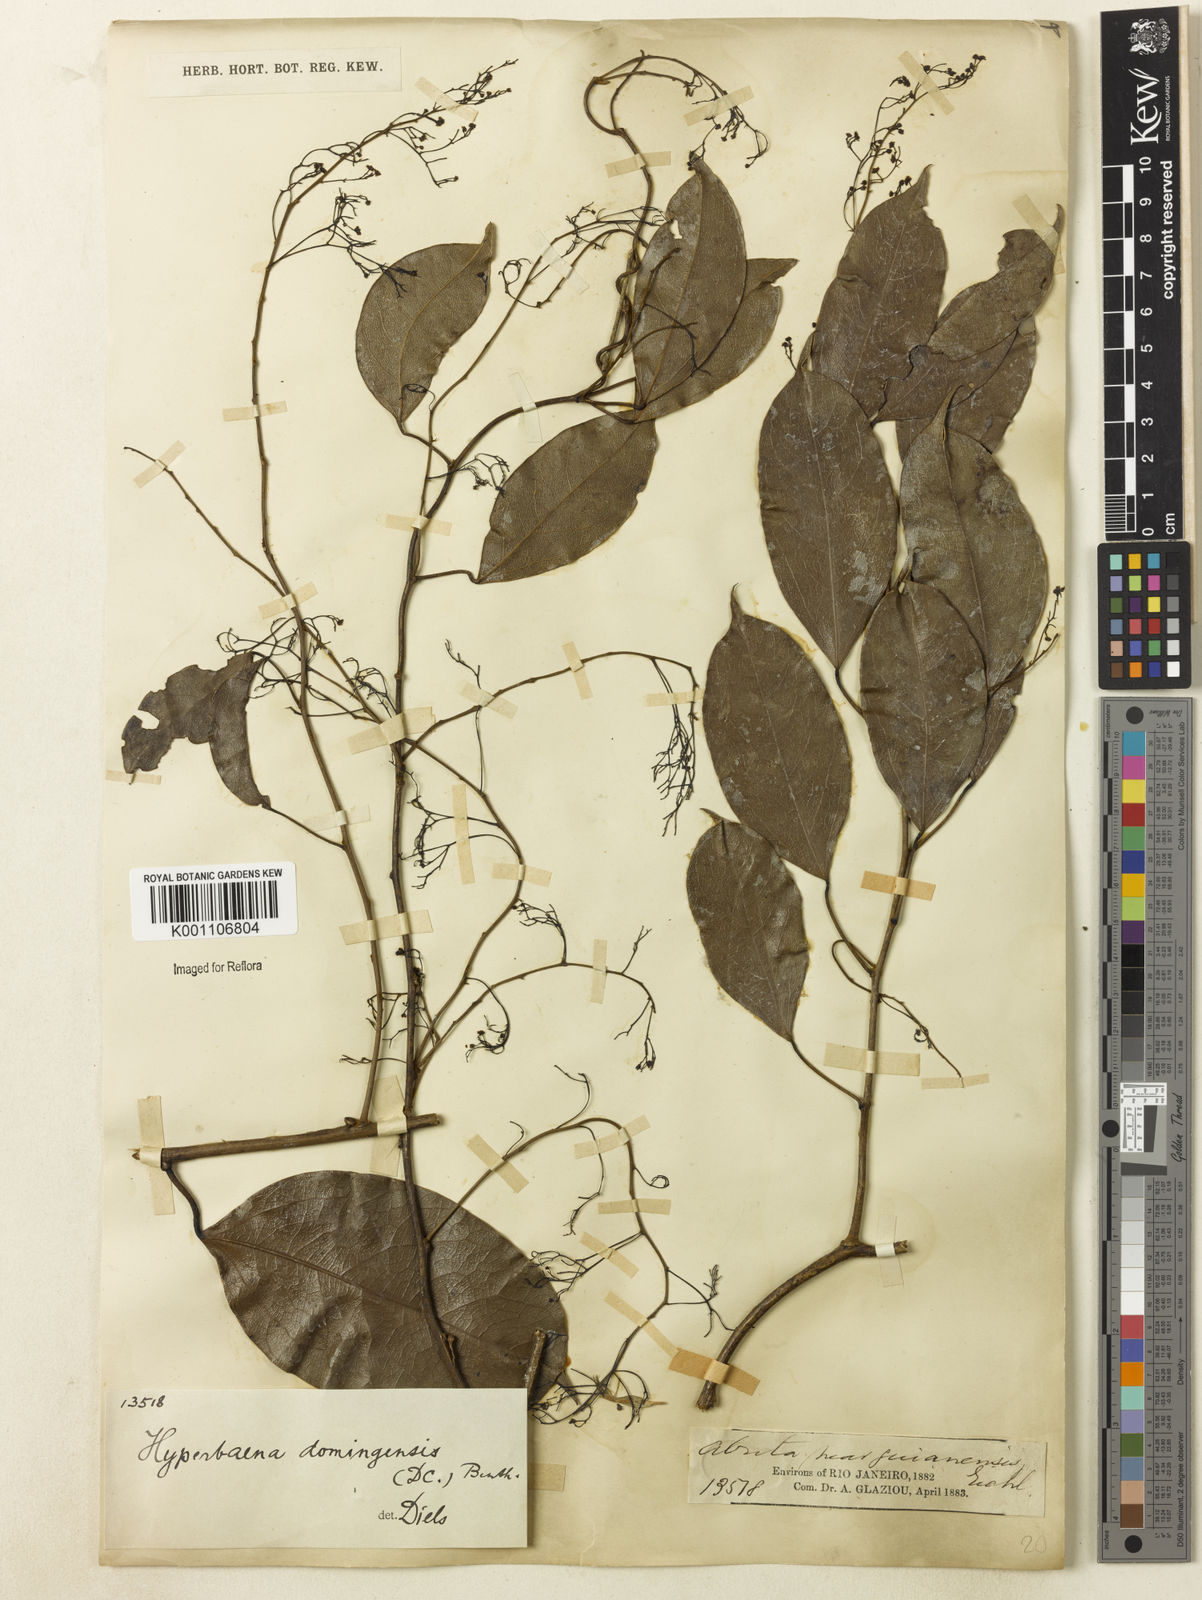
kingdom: Plantae
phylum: Tracheophyta
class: Magnoliopsida
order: Ranunculales
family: Menispermaceae
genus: Hyperbaena
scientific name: Hyperbaena domingensis
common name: Forest snakevine
